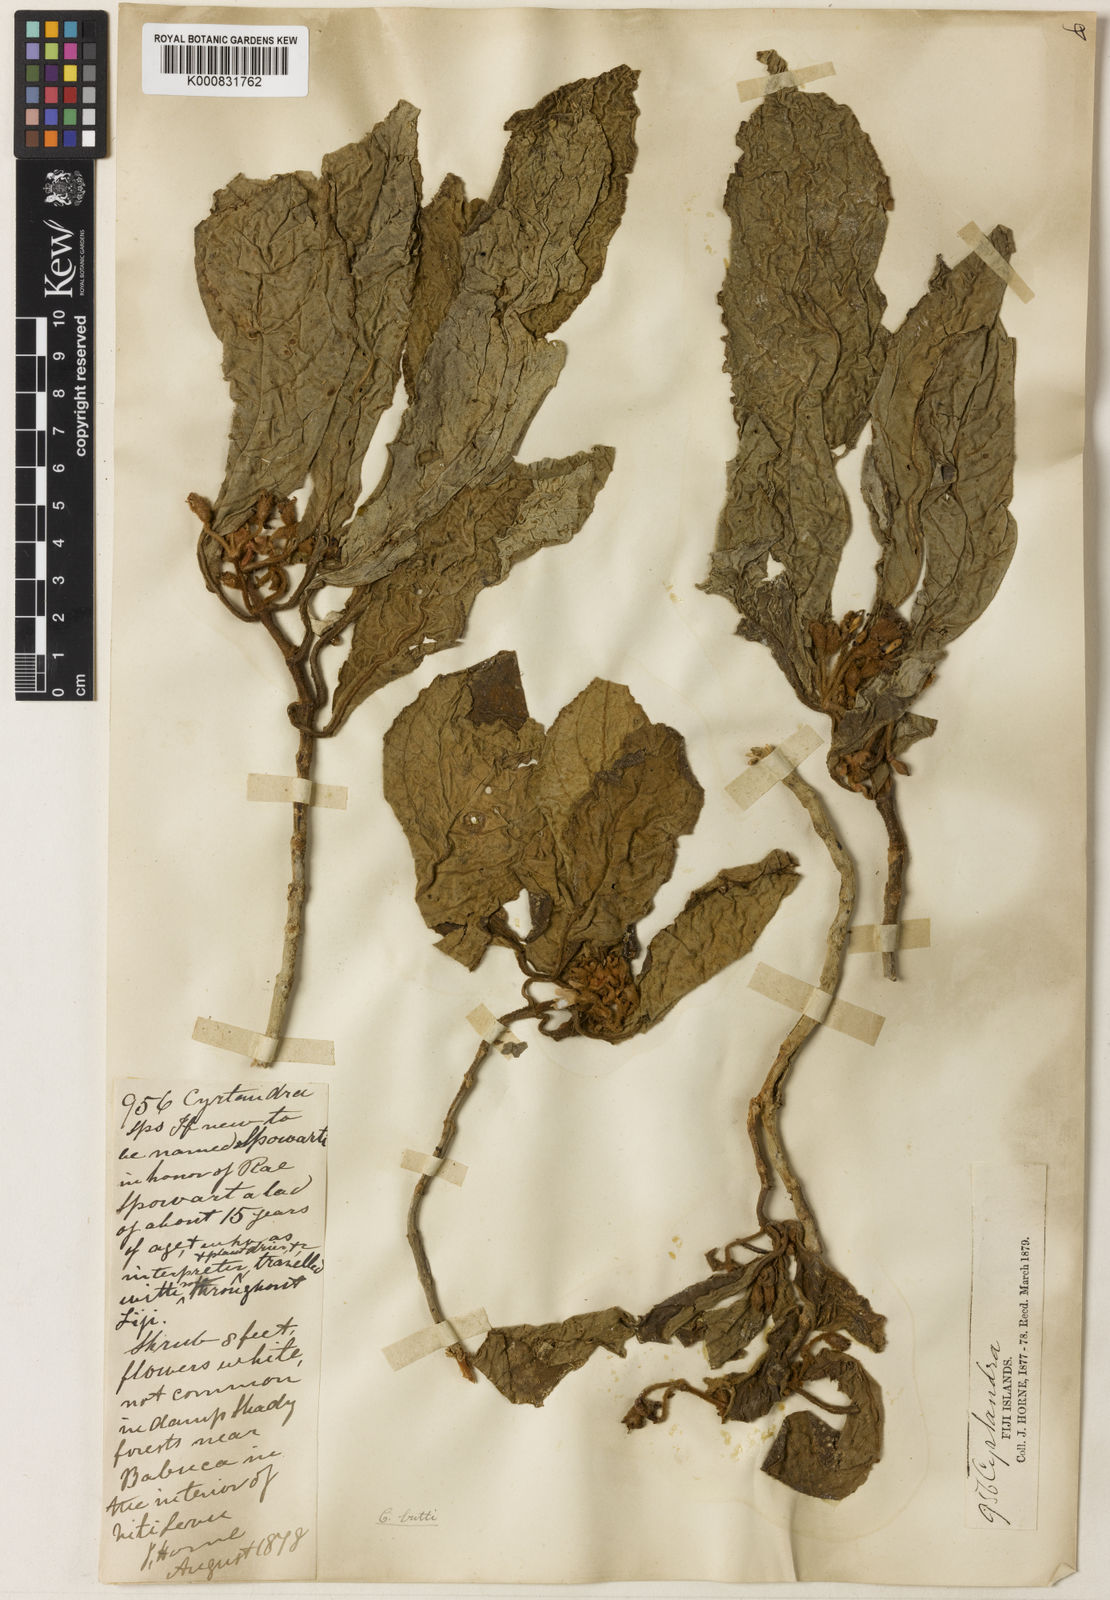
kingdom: Plantae
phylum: Tracheophyta
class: Magnoliopsida
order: Lamiales
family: Gesneriaceae
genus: Cyrtandra
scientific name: Cyrtandra
